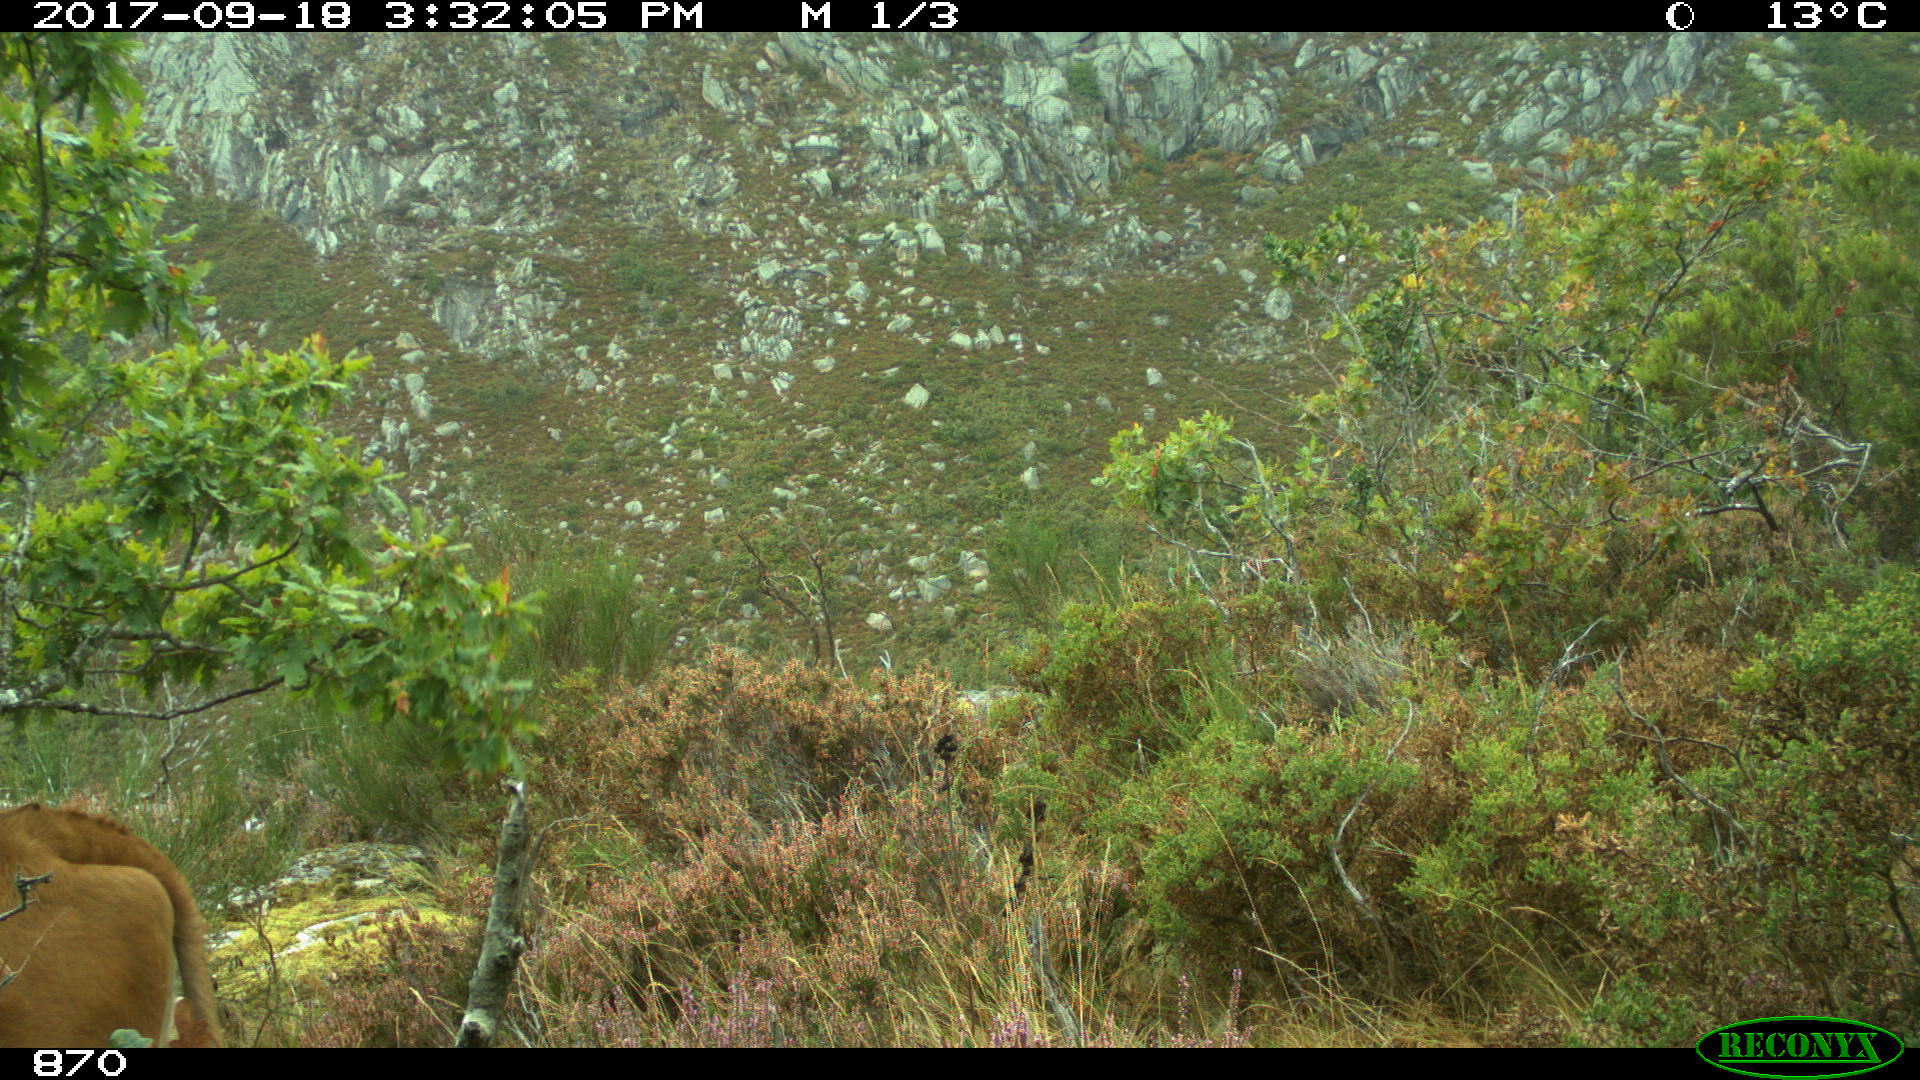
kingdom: Animalia
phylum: Chordata
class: Mammalia
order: Artiodactyla
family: Bovidae
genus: Bos
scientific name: Bos taurus
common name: Domesticated cattle
